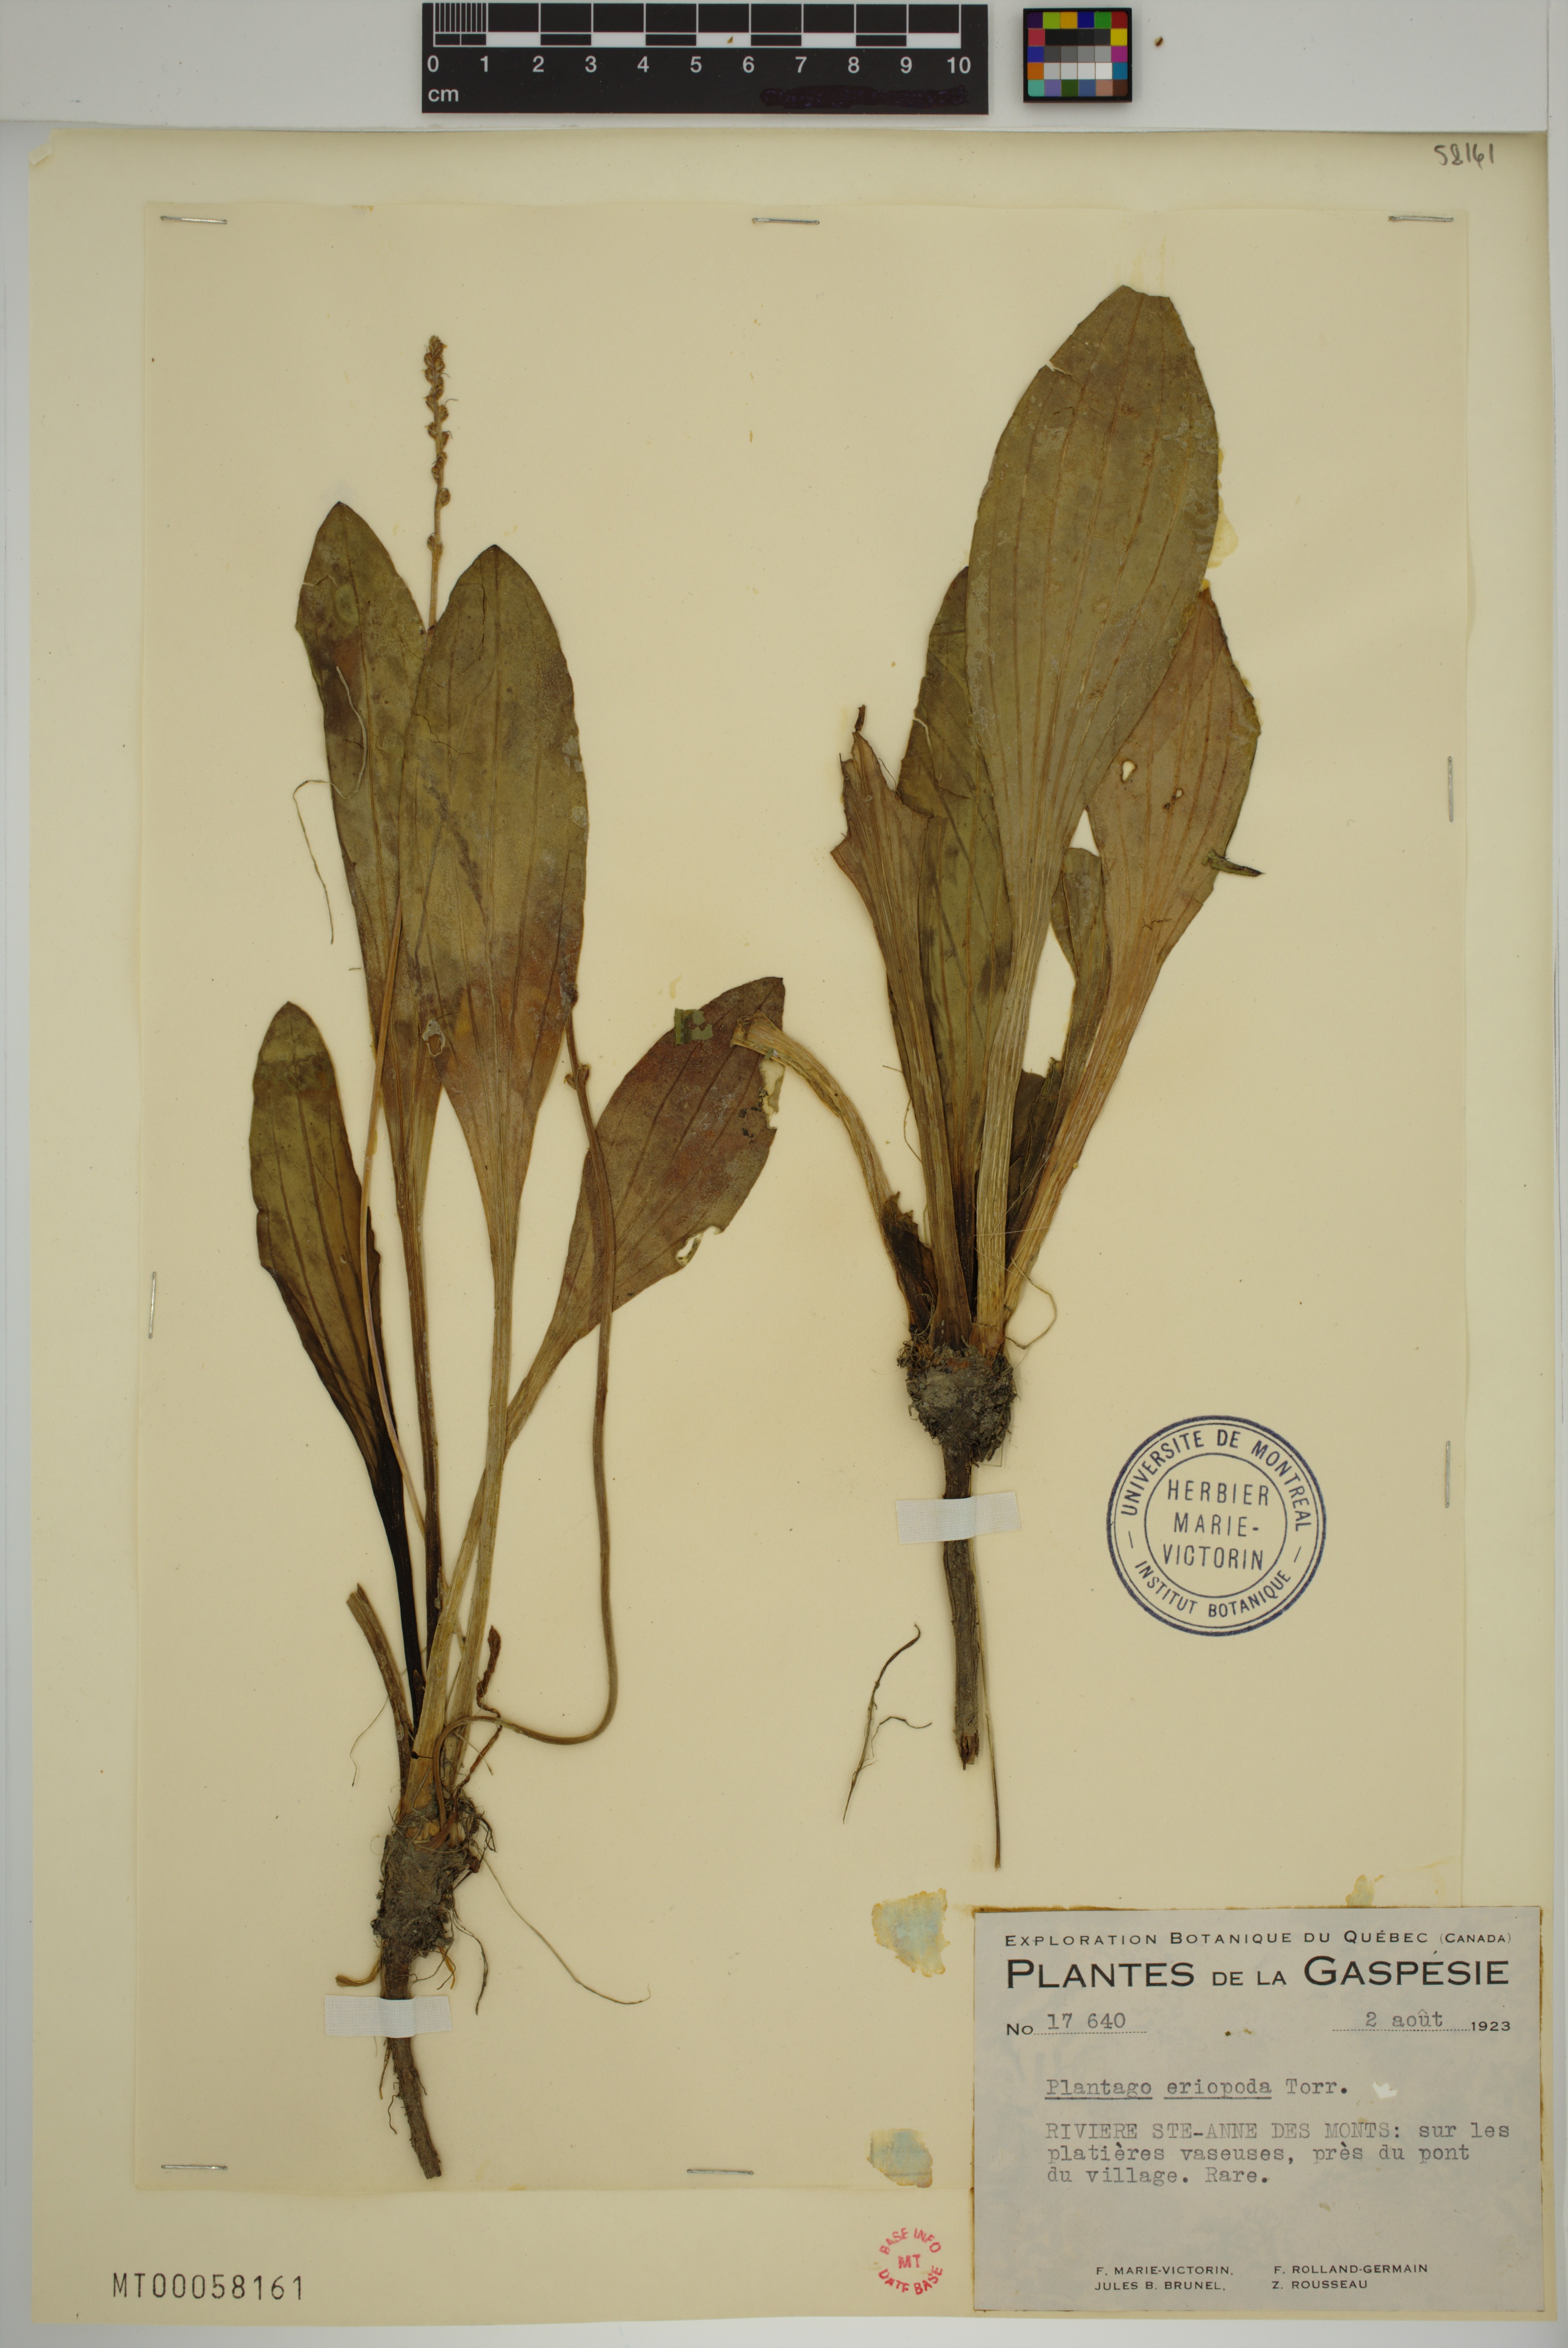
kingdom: Plantae
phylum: Tracheophyta
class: Magnoliopsida
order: Lamiales
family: Plantaginaceae
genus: Plantago
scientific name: Plantago eriopoda
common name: Alkali plantain
